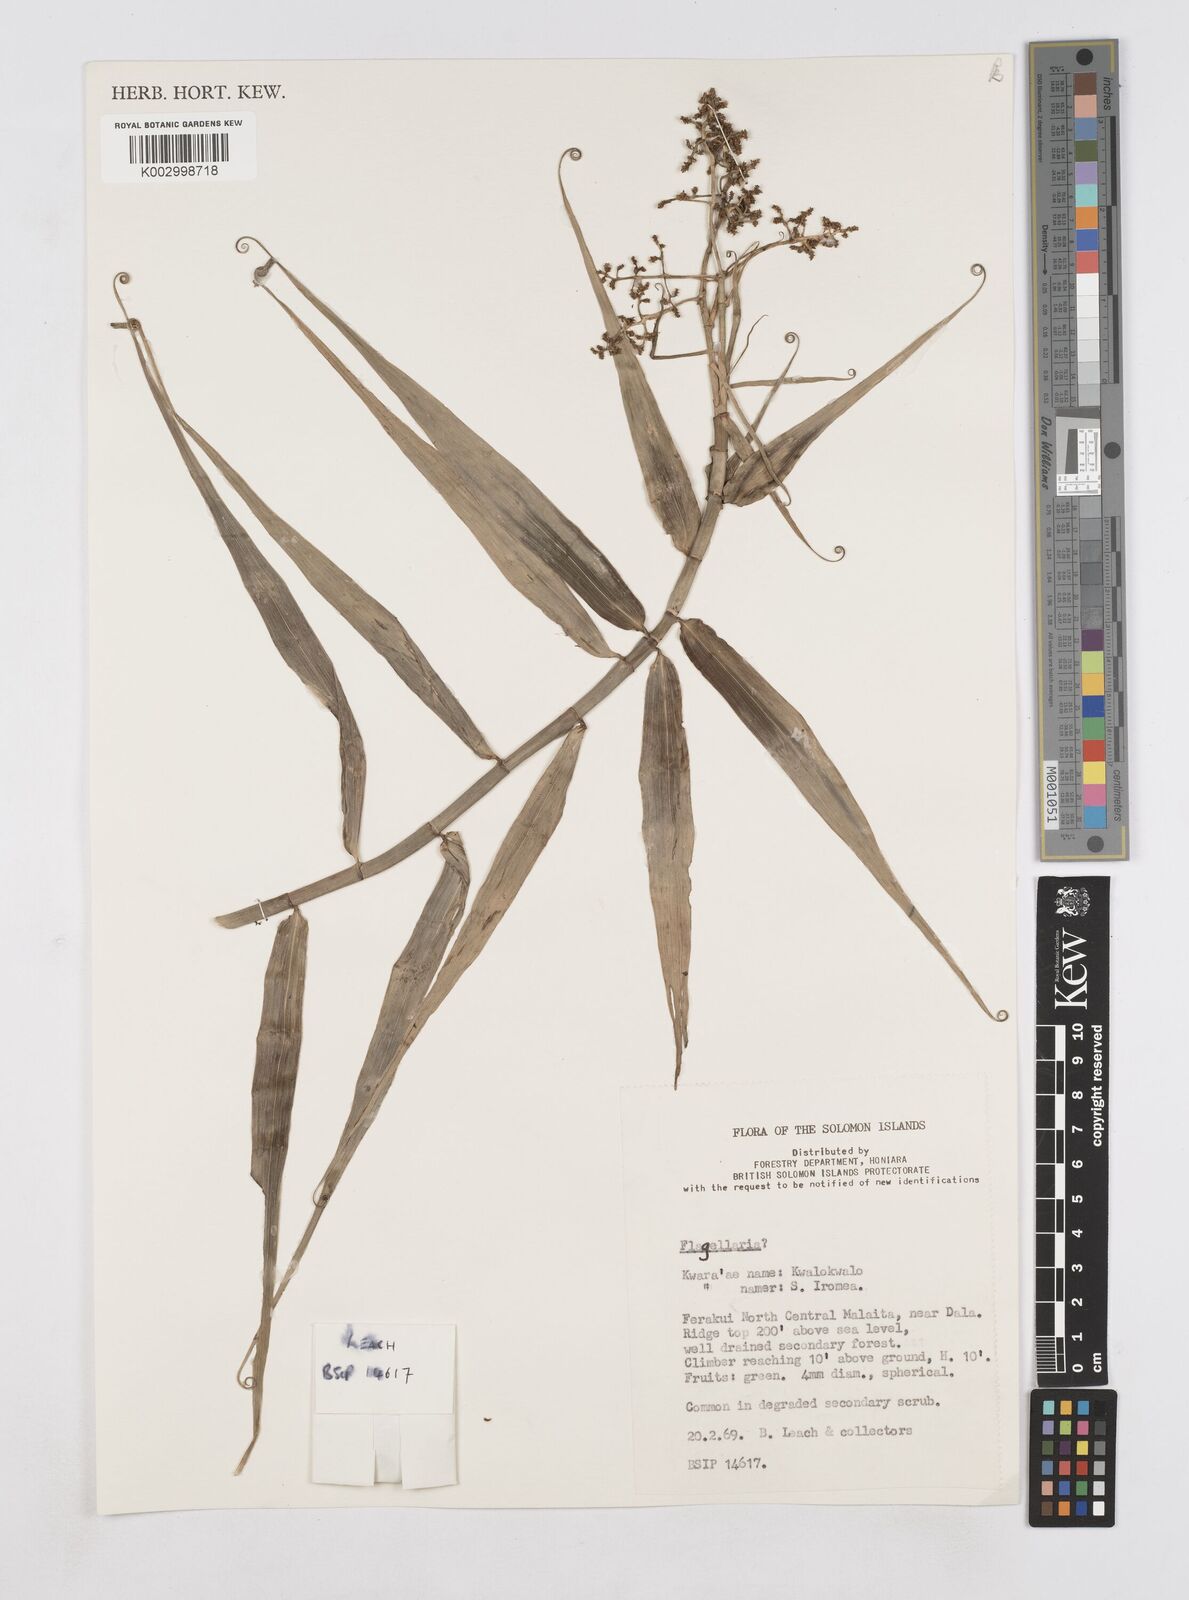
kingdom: Plantae
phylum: Tracheophyta
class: Liliopsida
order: Poales
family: Flagellariaceae
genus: Flagellaria
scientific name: Flagellaria indica
